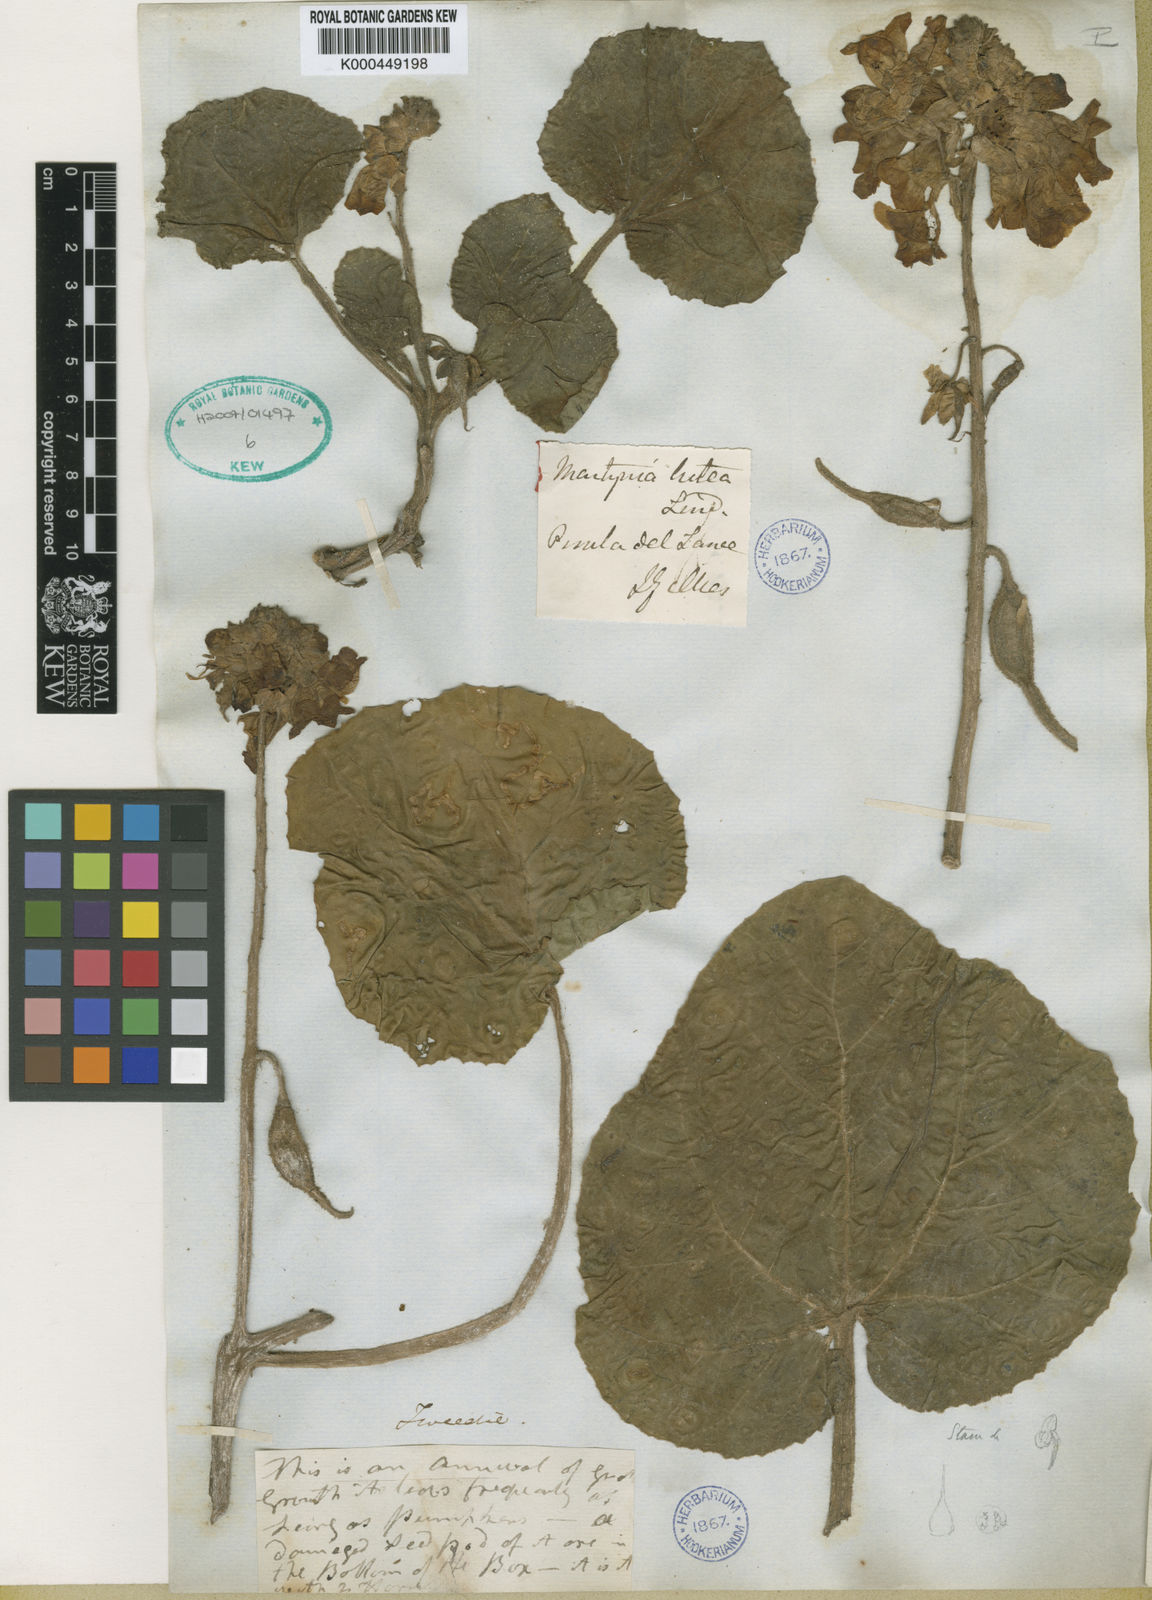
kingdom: Plantae
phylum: Tracheophyta
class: Magnoliopsida
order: Lamiales
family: Martyniaceae
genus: Proboscidea
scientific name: Proboscidea
